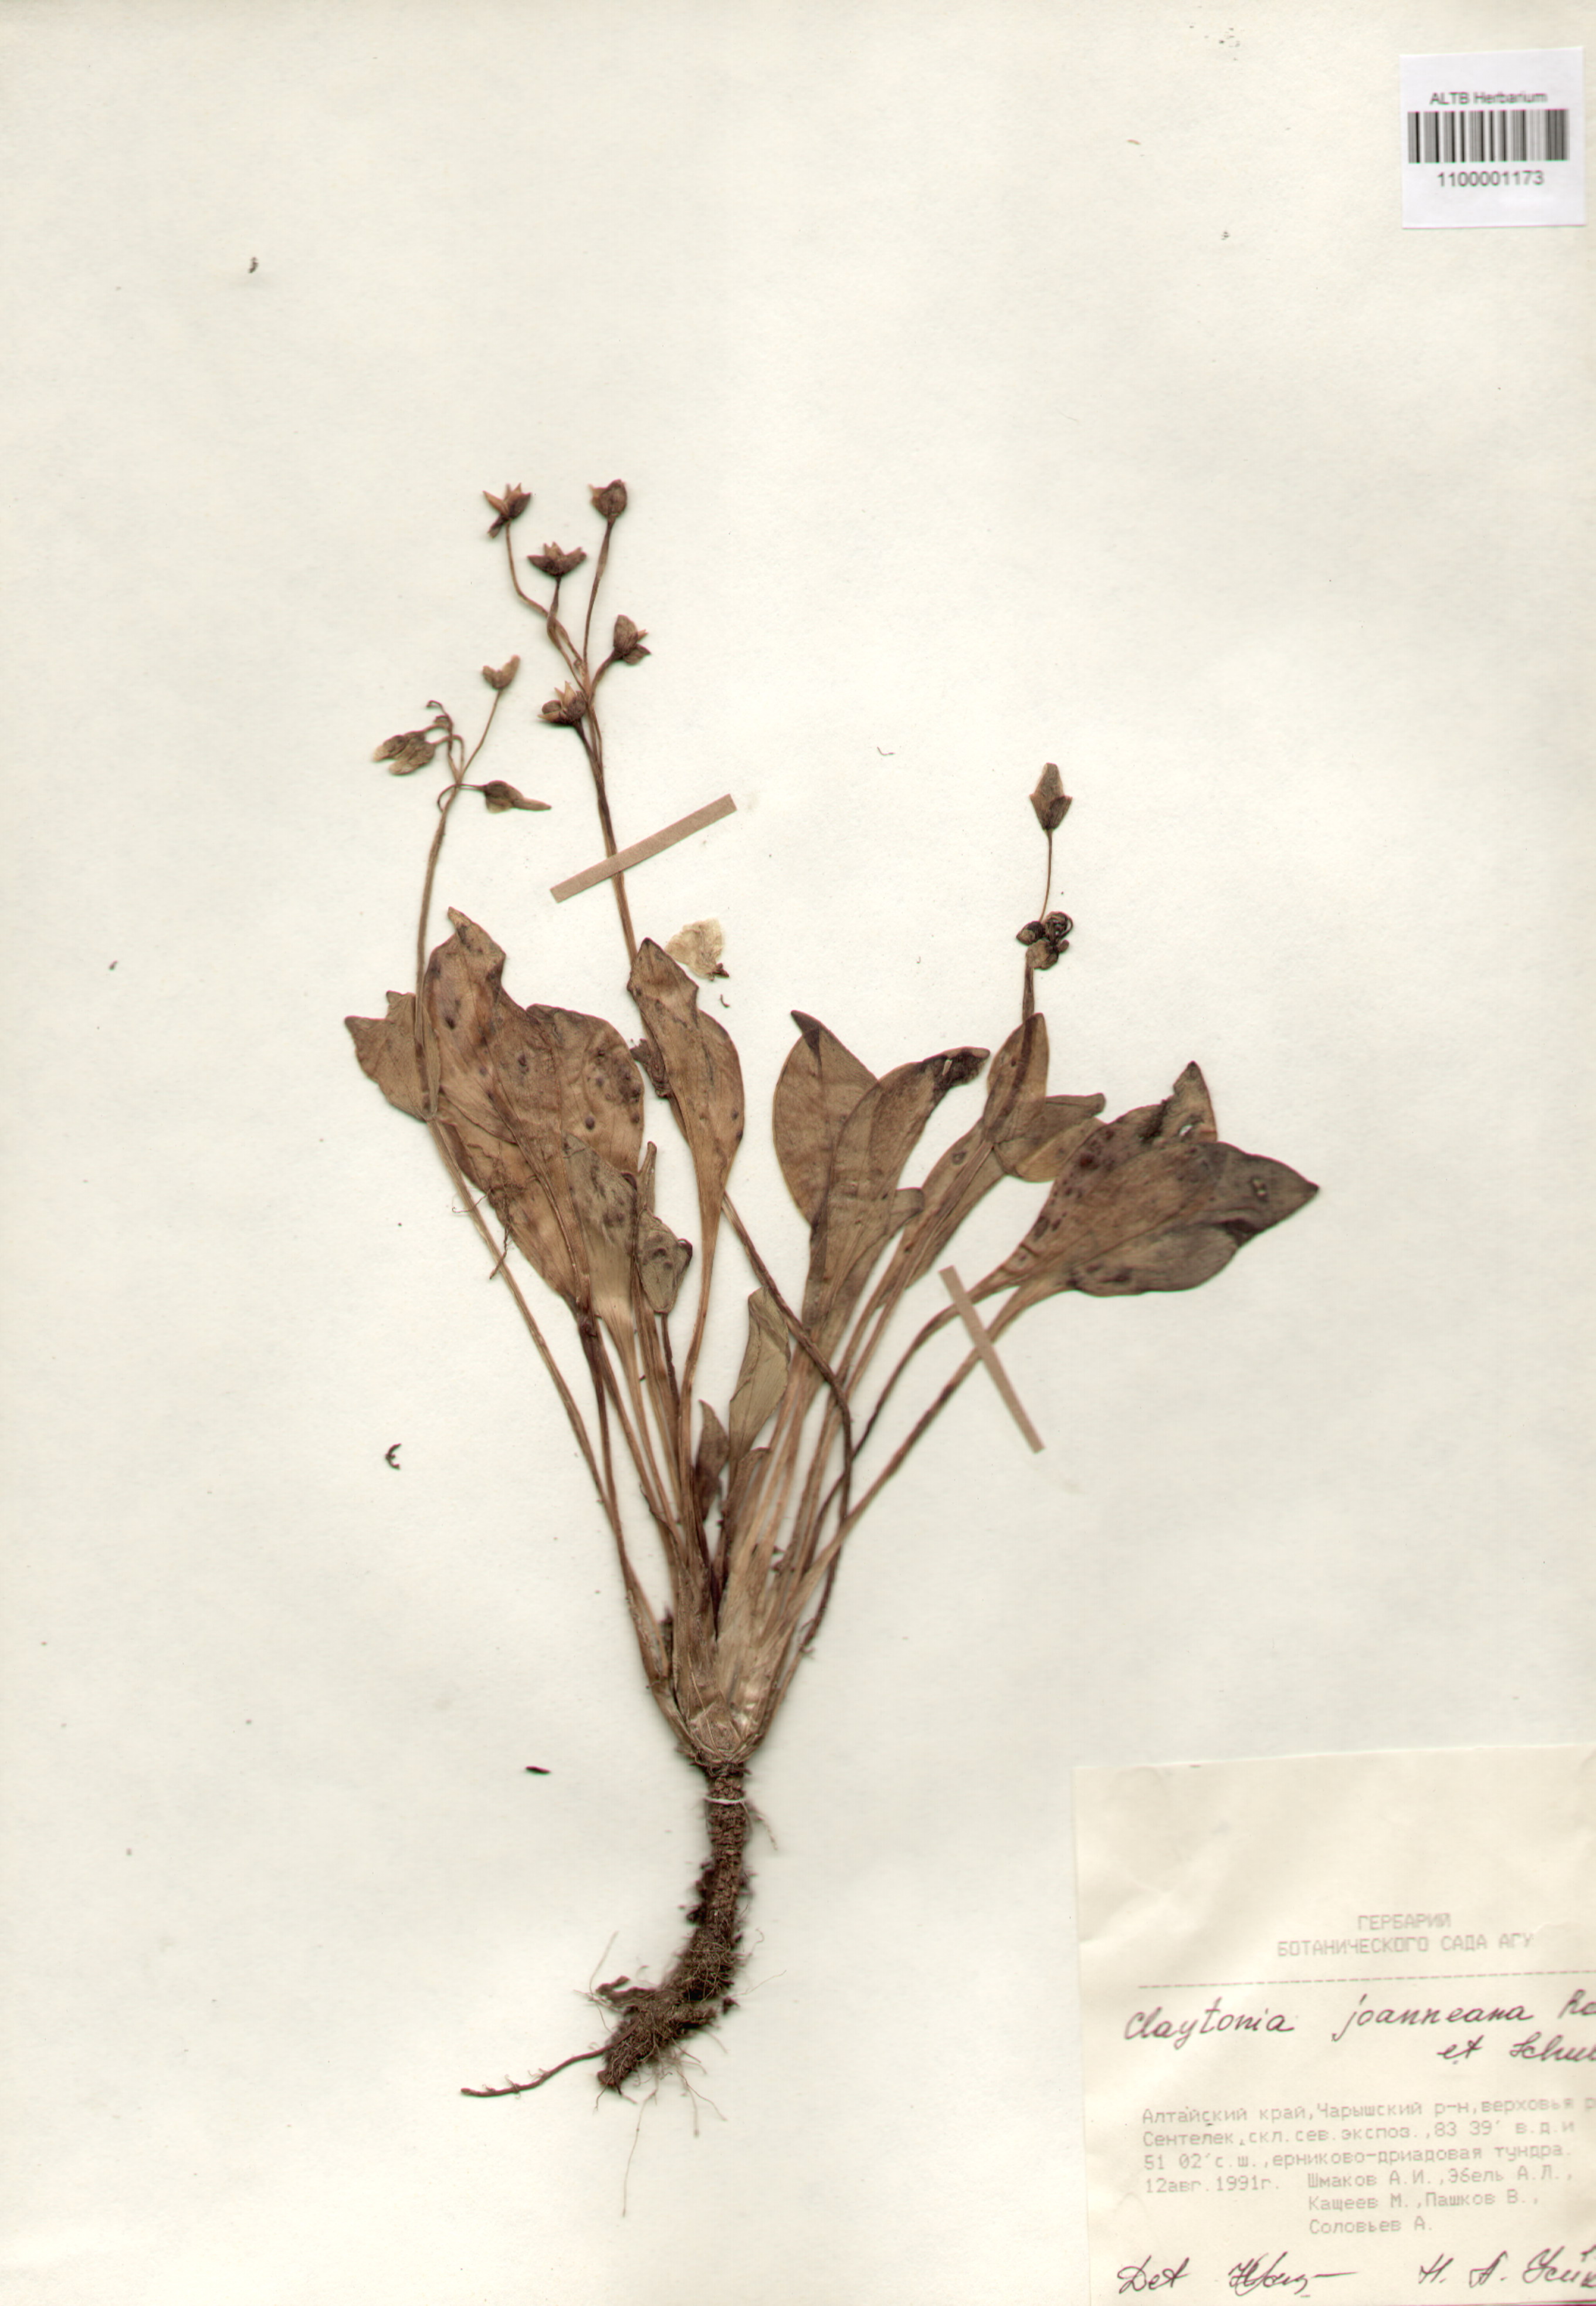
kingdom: Plantae
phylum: Tracheophyta
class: Magnoliopsida
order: Caryophyllales
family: Montiaceae
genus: Claytonia
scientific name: Claytonia joanneana
